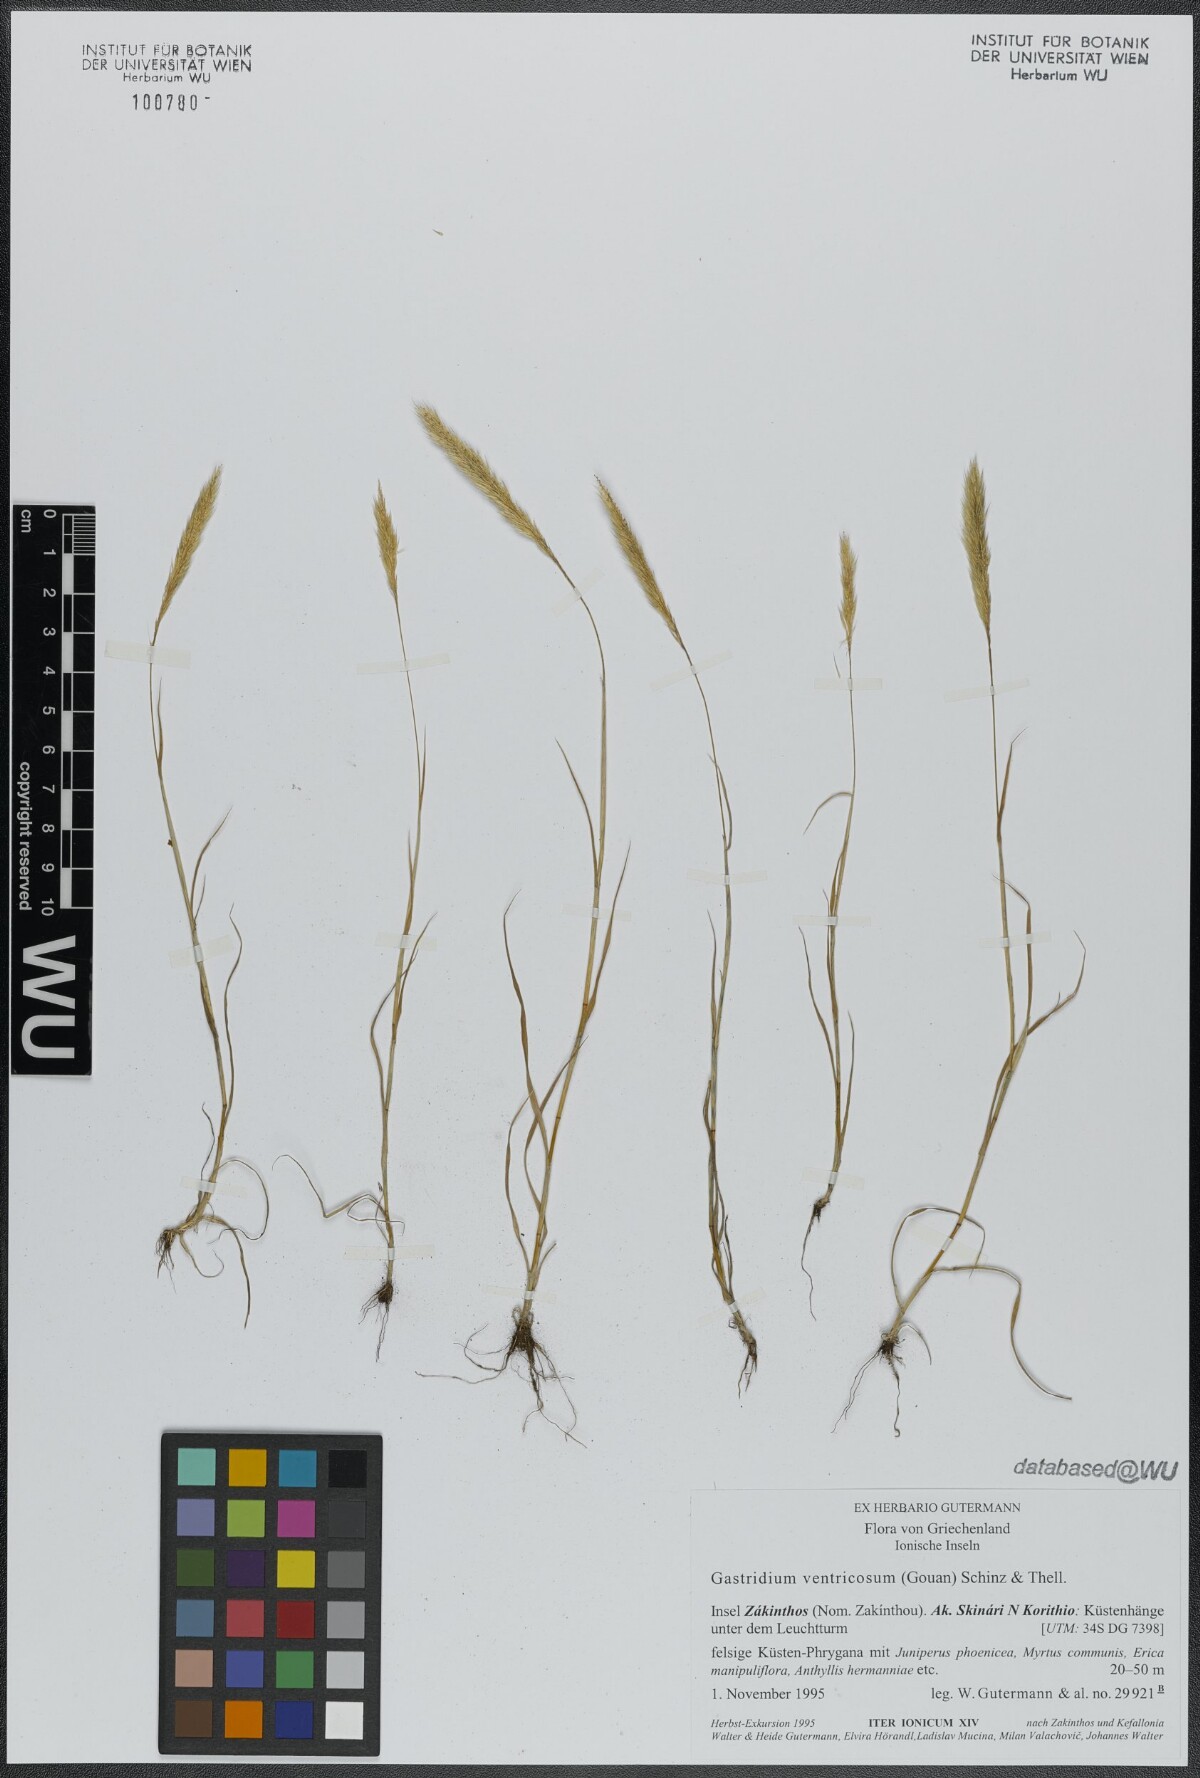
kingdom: Plantae
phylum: Tracheophyta
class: Liliopsida
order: Poales
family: Poaceae
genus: Gastridium
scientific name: Gastridium ventricosum
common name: Nit-grass
